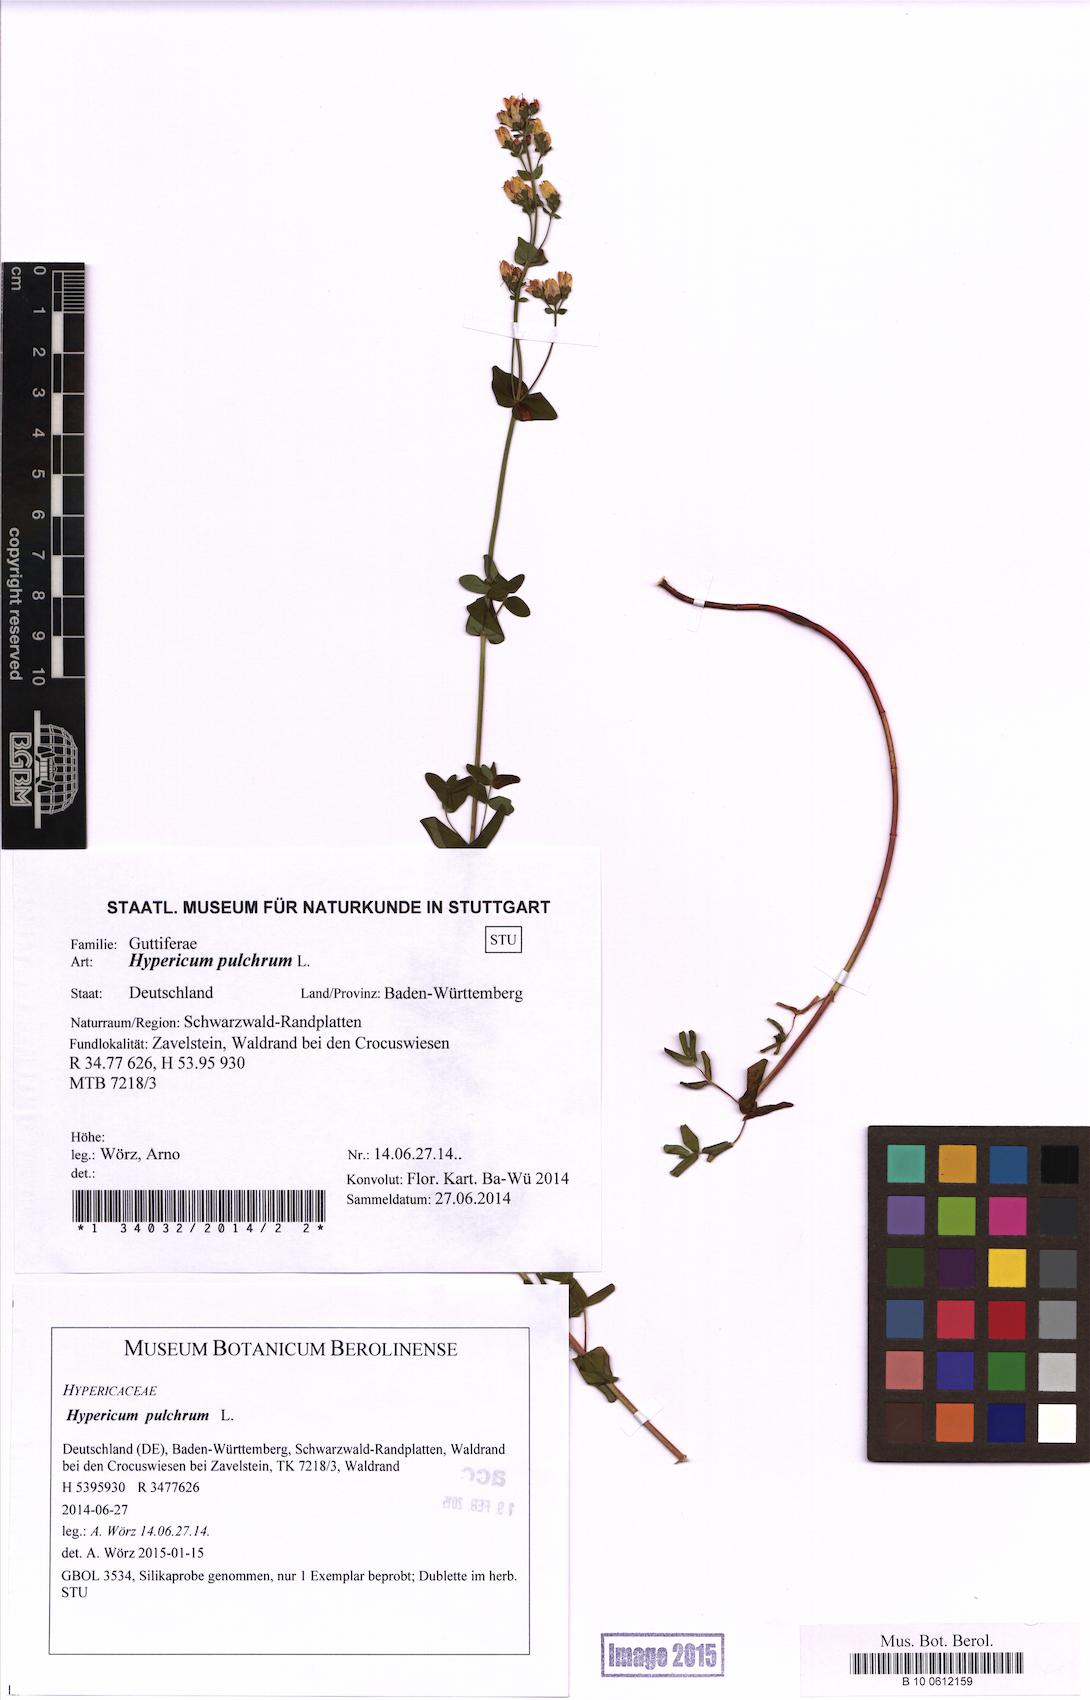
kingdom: Plantae
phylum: Tracheophyta
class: Magnoliopsida
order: Malpighiales
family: Hypericaceae
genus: Hypericum
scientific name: Hypericum pulchrum
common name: Slender st. john's-wort
